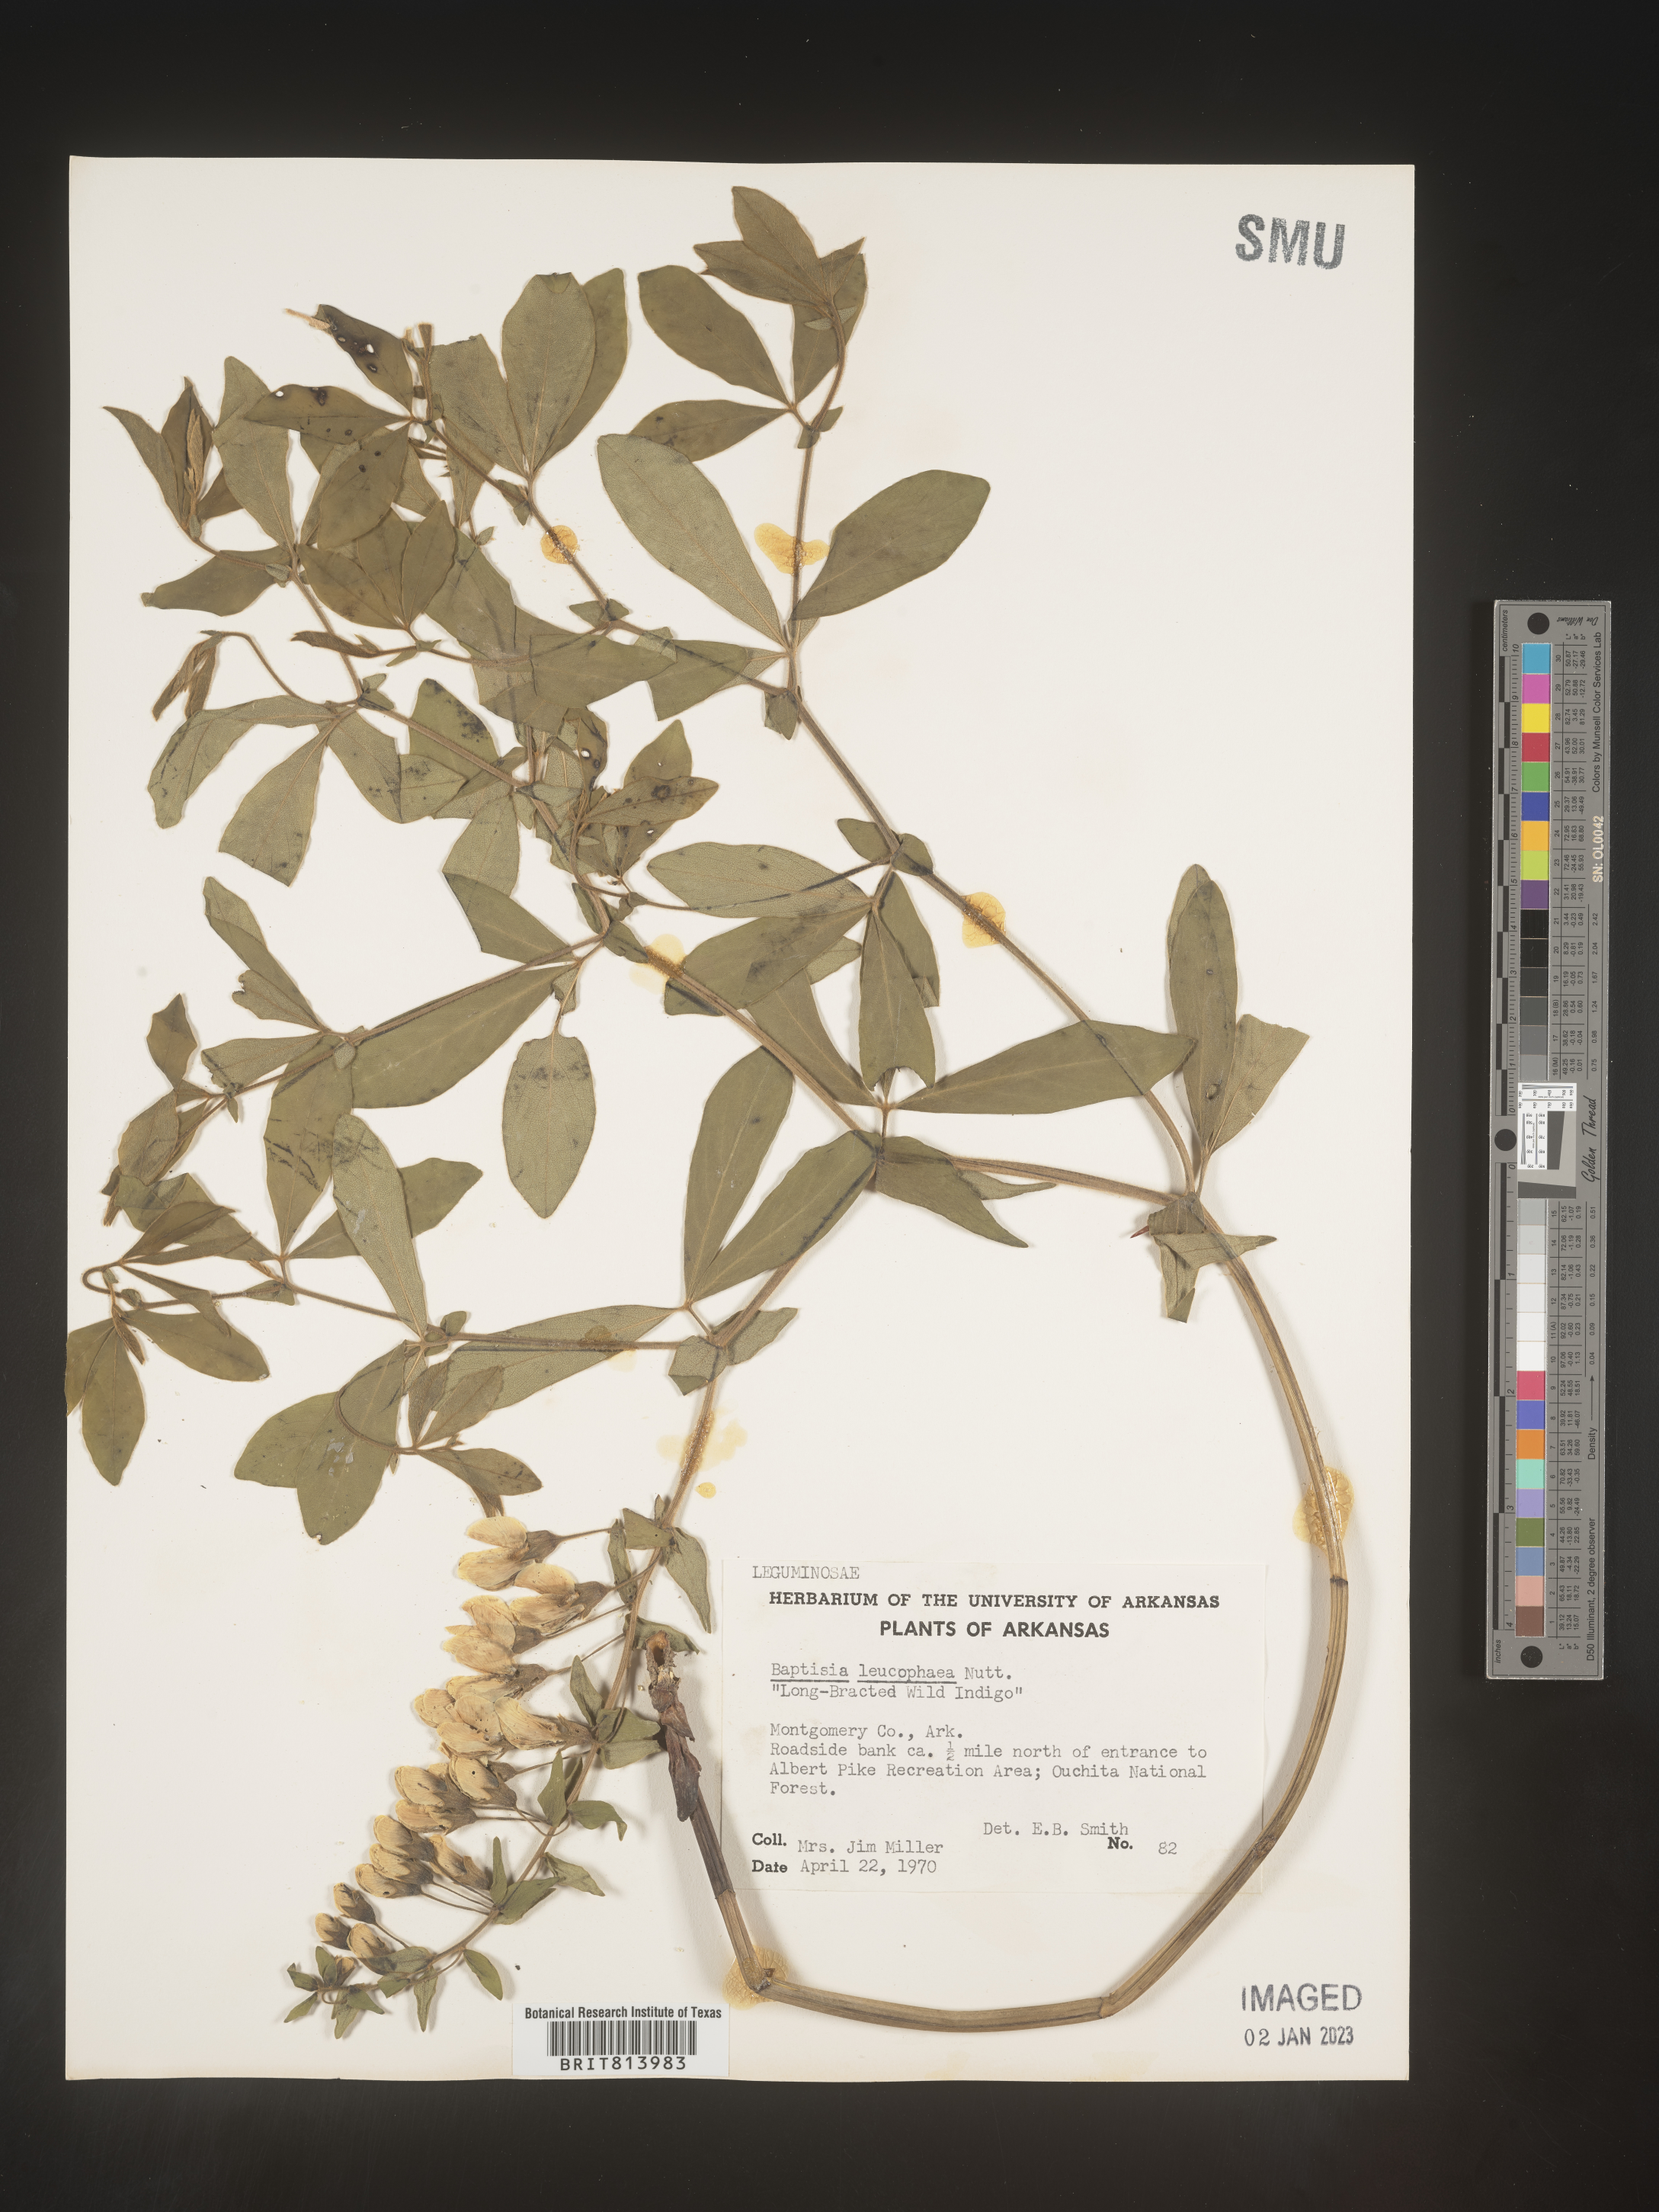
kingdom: Plantae
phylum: Tracheophyta
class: Magnoliopsida
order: Fabales
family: Fabaceae
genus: Baptisia
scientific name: Baptisia bracteata
